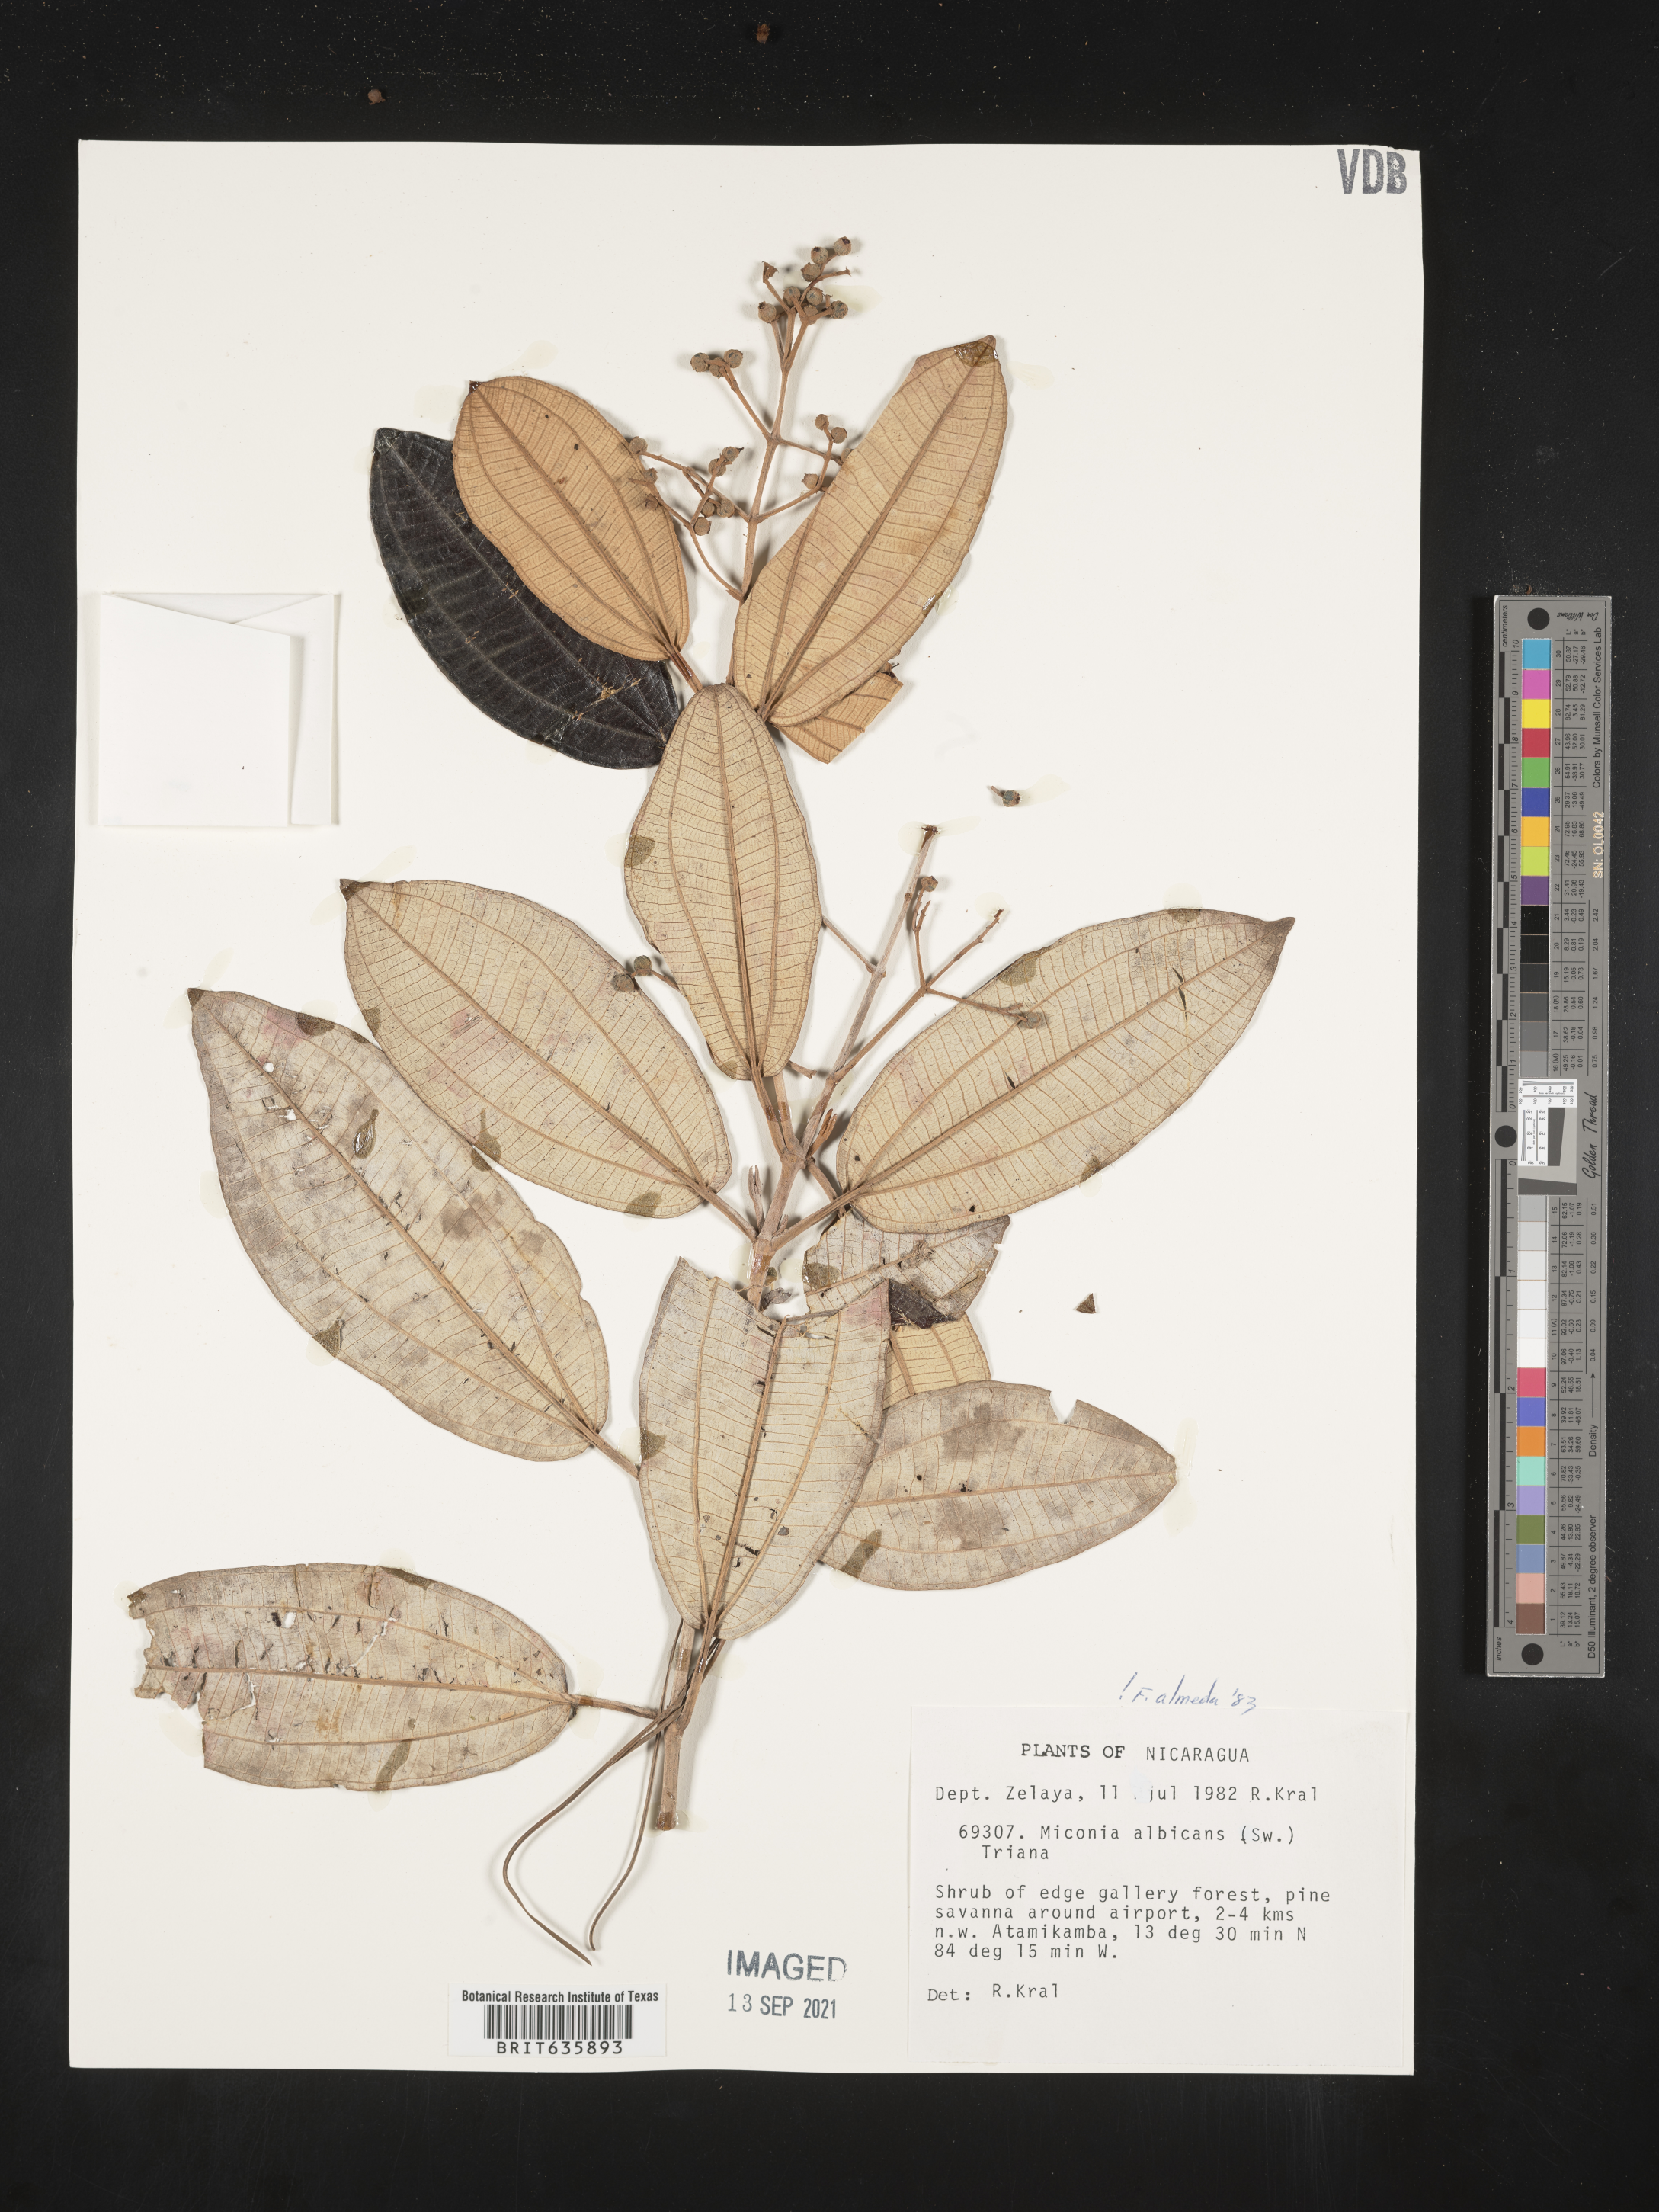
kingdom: Plantae
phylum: Tracheophyta
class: Magnoliopsida
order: Myrtales
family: Melastomataceae
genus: Miconia
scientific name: Miconia
